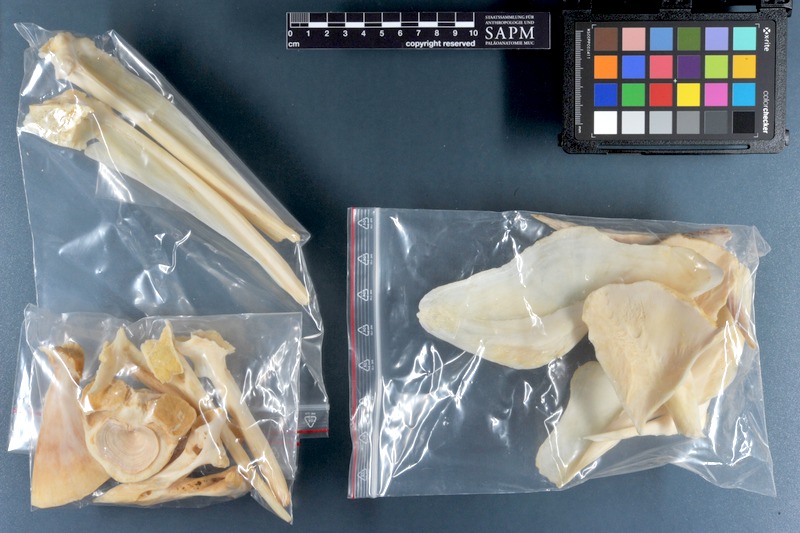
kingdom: Animalia
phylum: Chordata
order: Perciformes
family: Serranidae
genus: Epinephelus
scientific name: Epinephelus marginatus
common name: Dusky grouper
